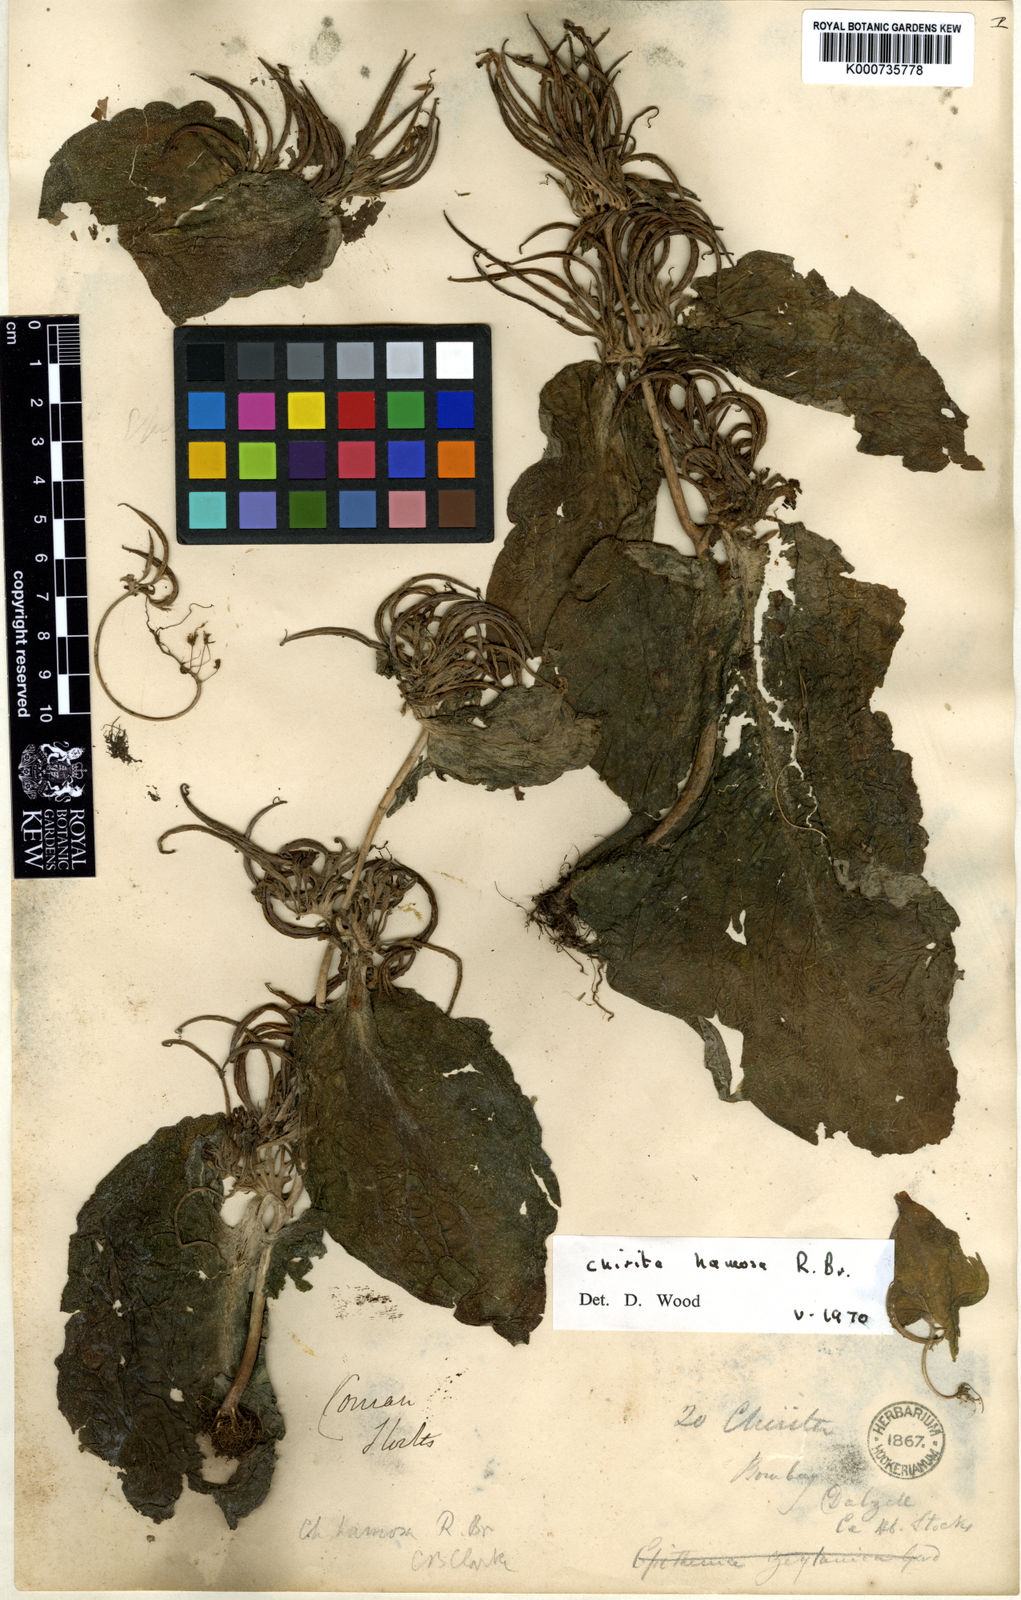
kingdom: Plantae
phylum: Tracheophyta
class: Magnoliopsida
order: Lamiales
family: Gesneriaceae
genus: Microchirita
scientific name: Microchirita hamosa
